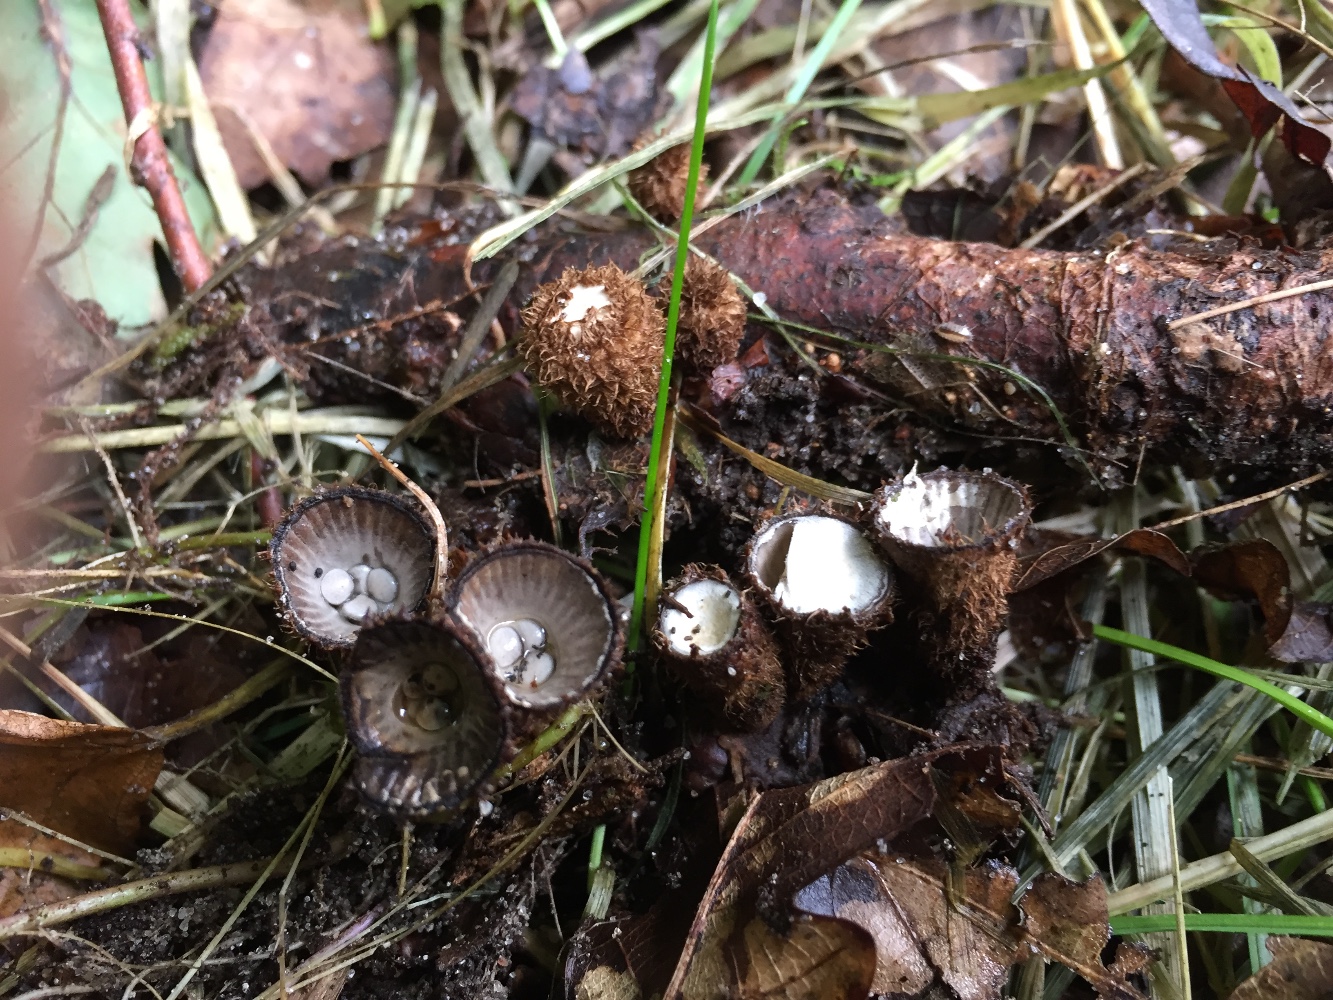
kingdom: Fungi
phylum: Basidiomycota
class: Agaricomycetes
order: Agaricales
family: Agaricaceae
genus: Cyathus
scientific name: Cyathus striatus
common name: stribet redesvamp
